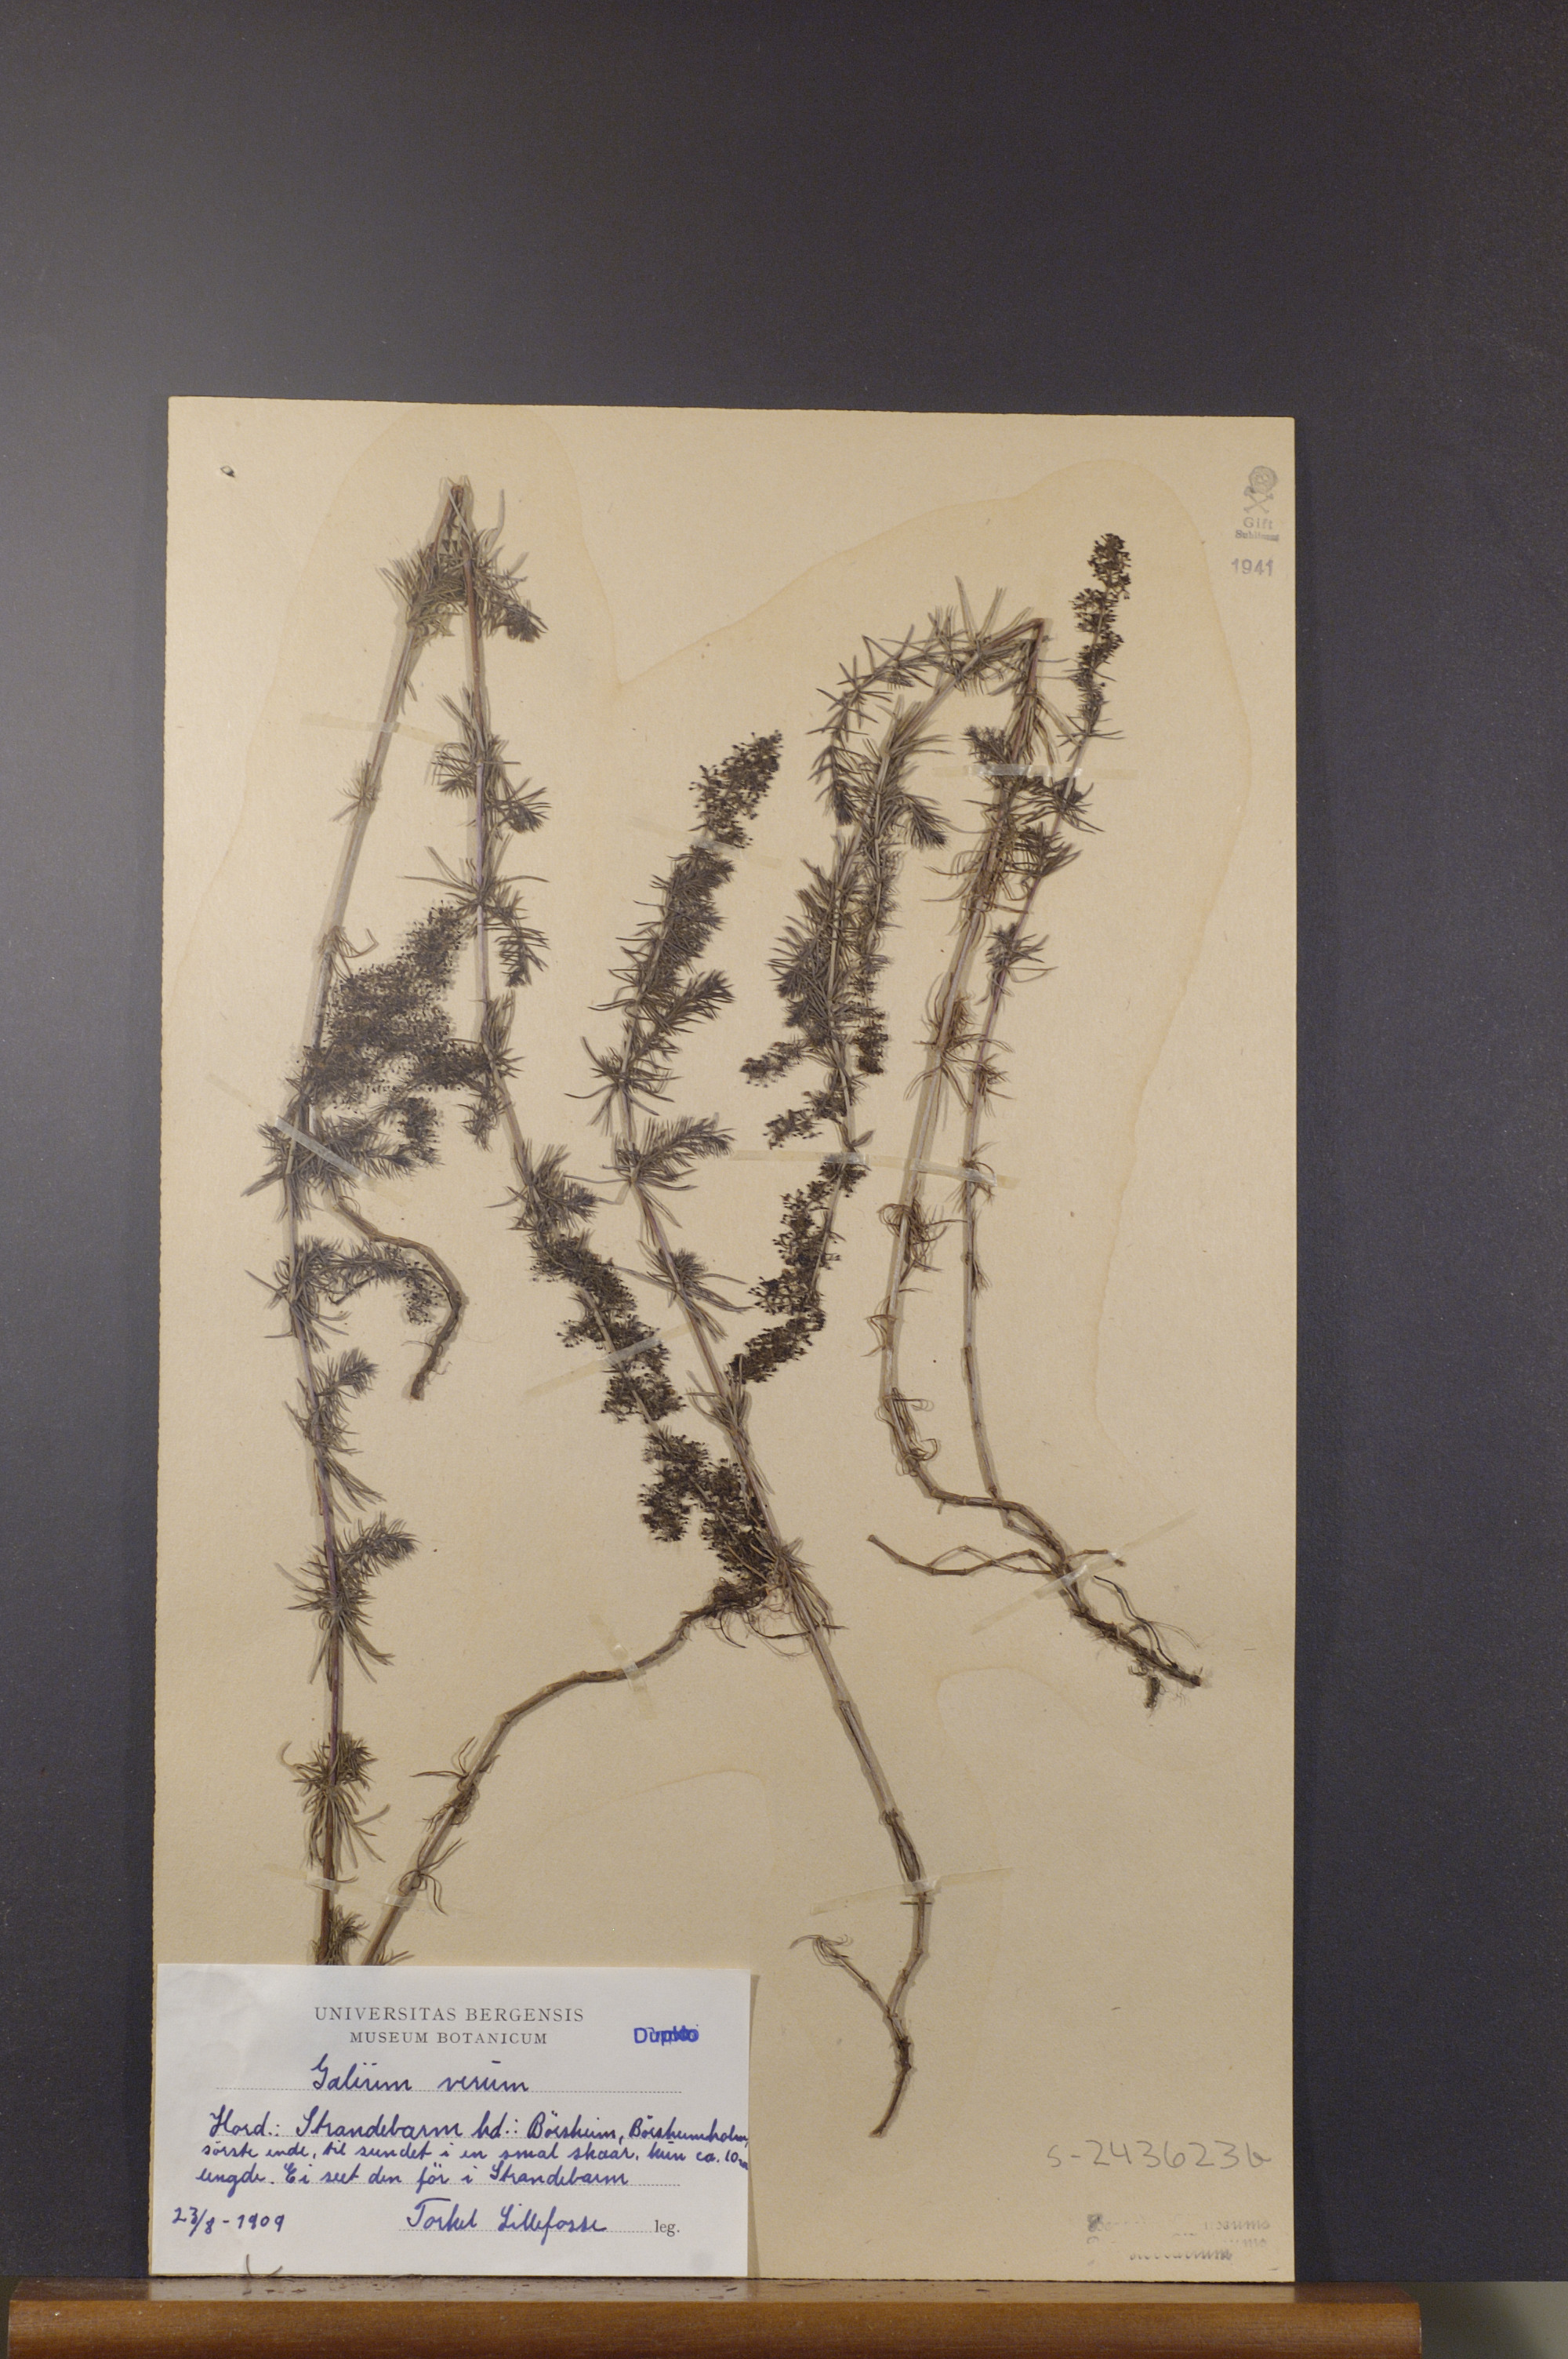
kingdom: Plantae
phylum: Tracheophyta
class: Magnoliopsida
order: Gentianales
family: Rubiaceae
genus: Galium
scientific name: Galium verum
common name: Lady's bedstraw
